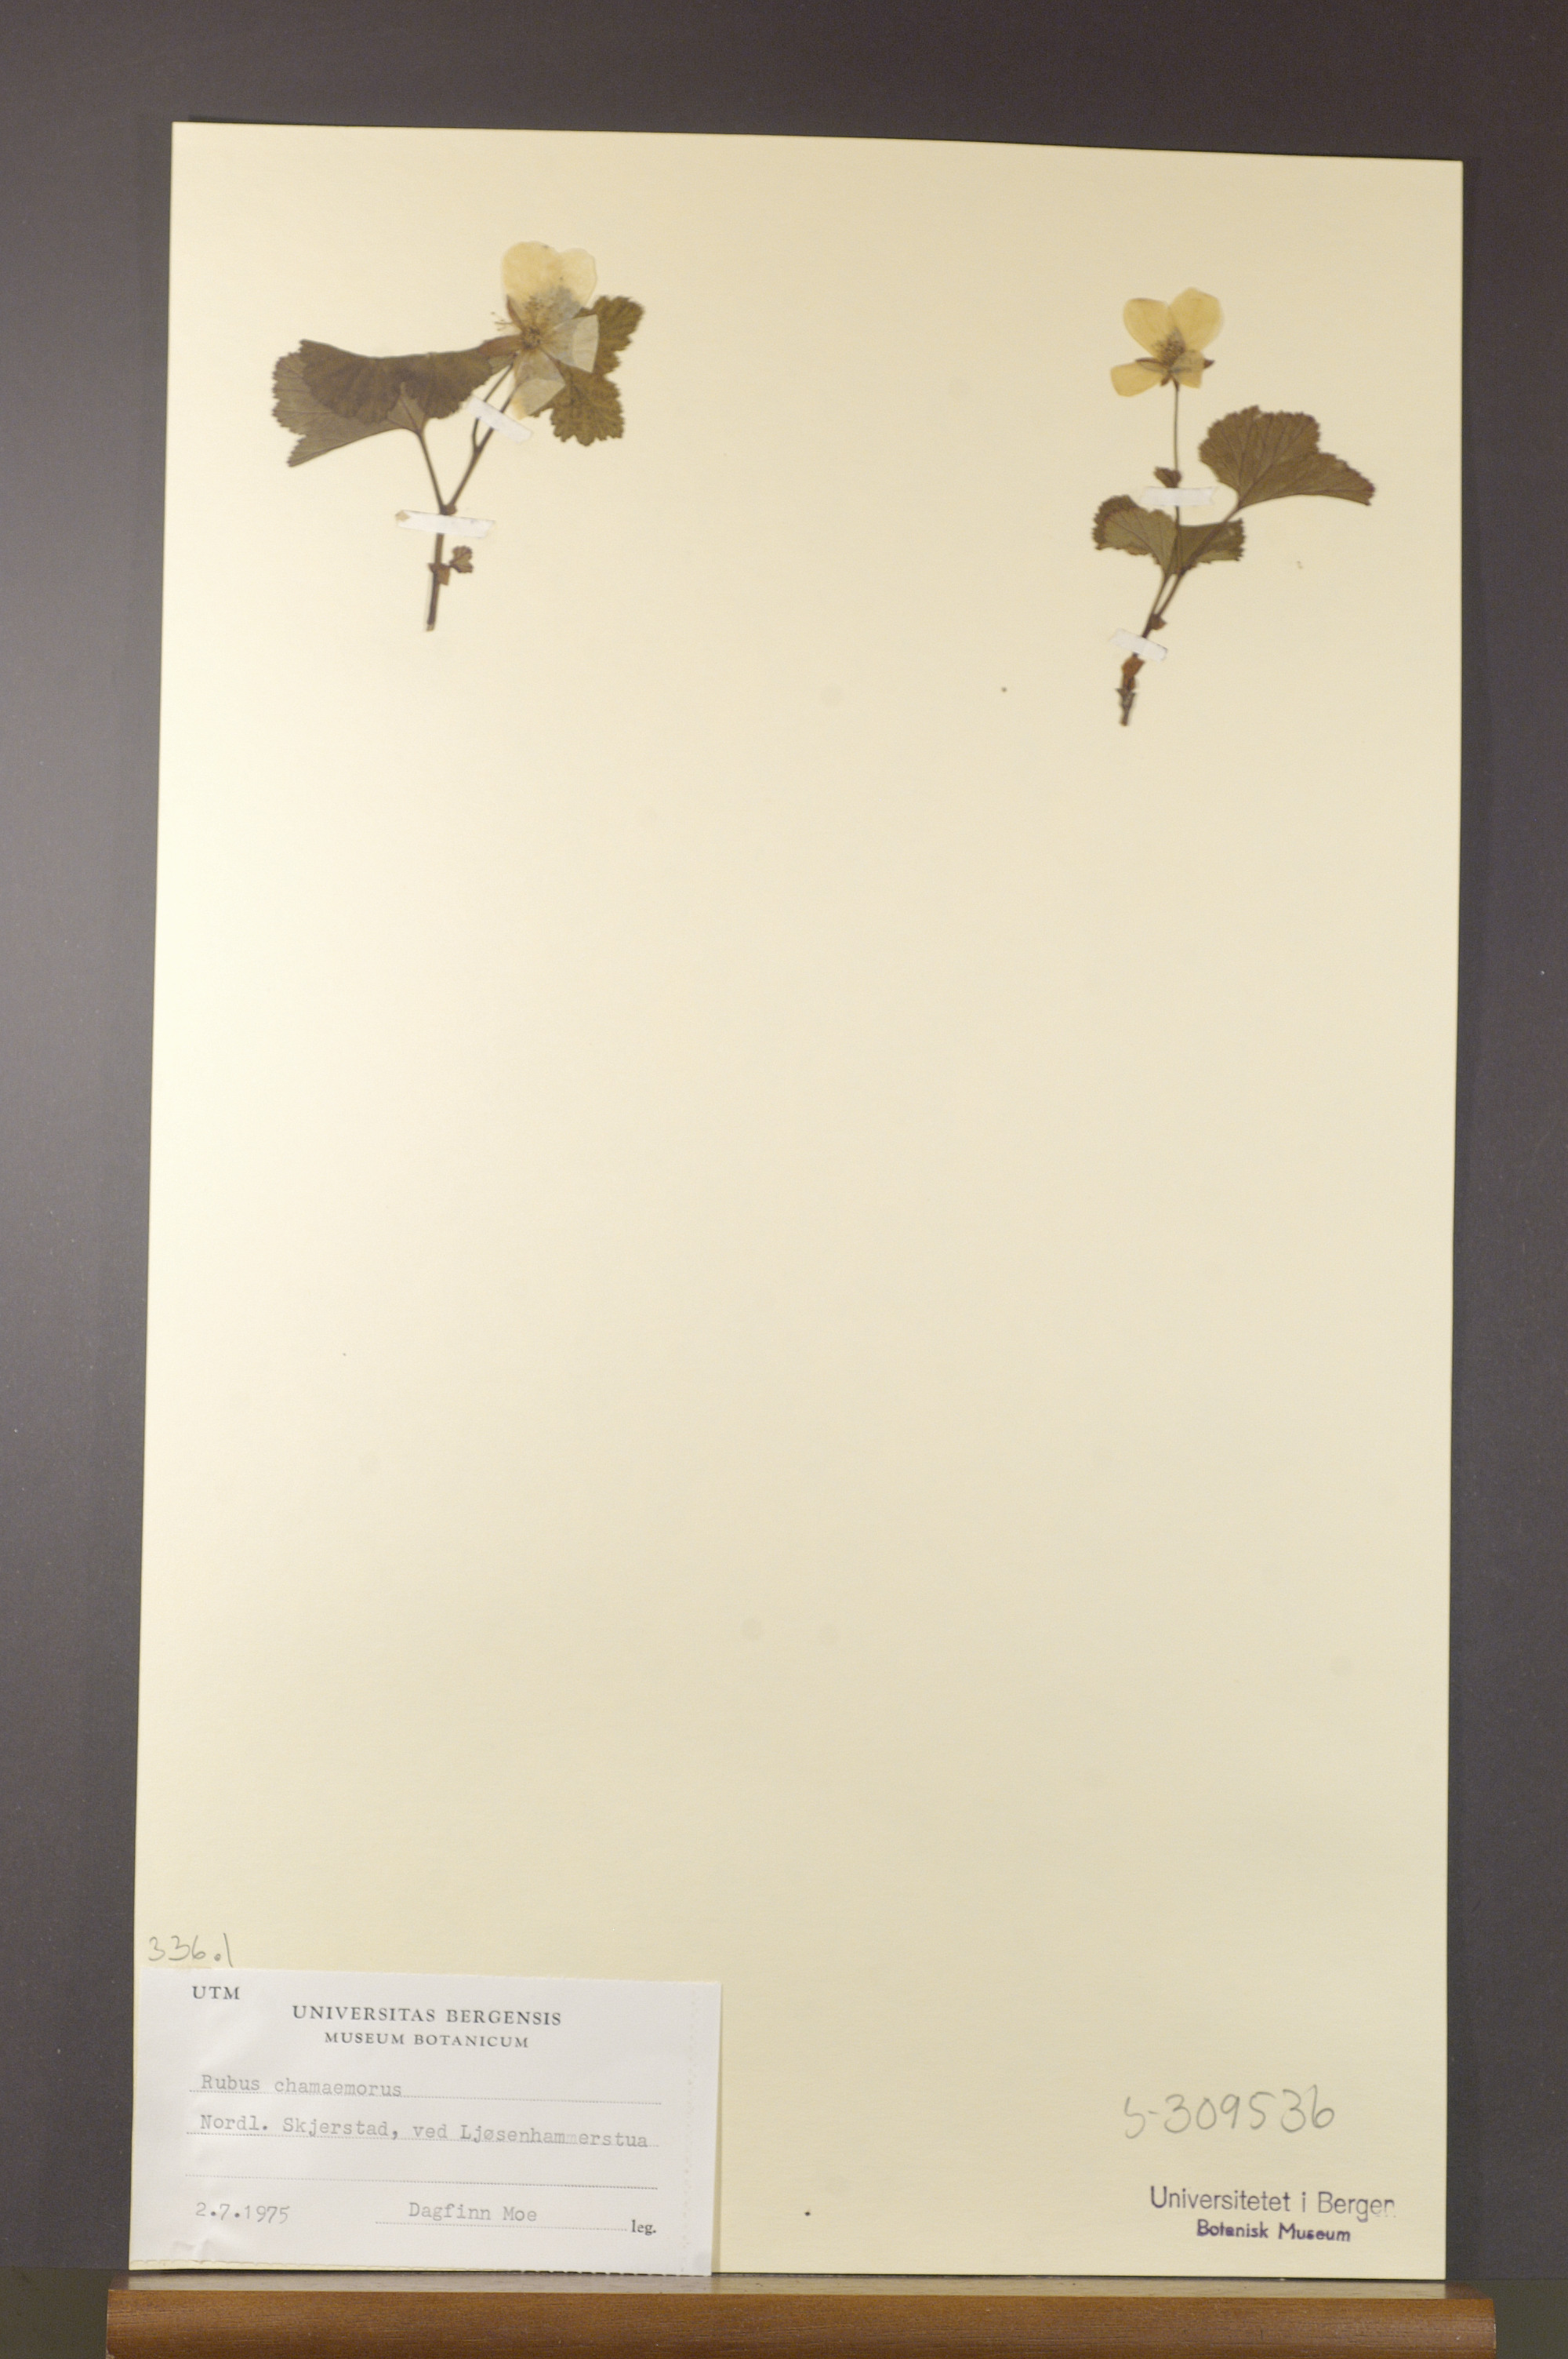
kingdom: Plantae
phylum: Tracheophyta
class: Magnoliopsida
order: Rosales
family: Rosaceae
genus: Rubus
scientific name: Rubus chamaemorus
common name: Cloudberry
